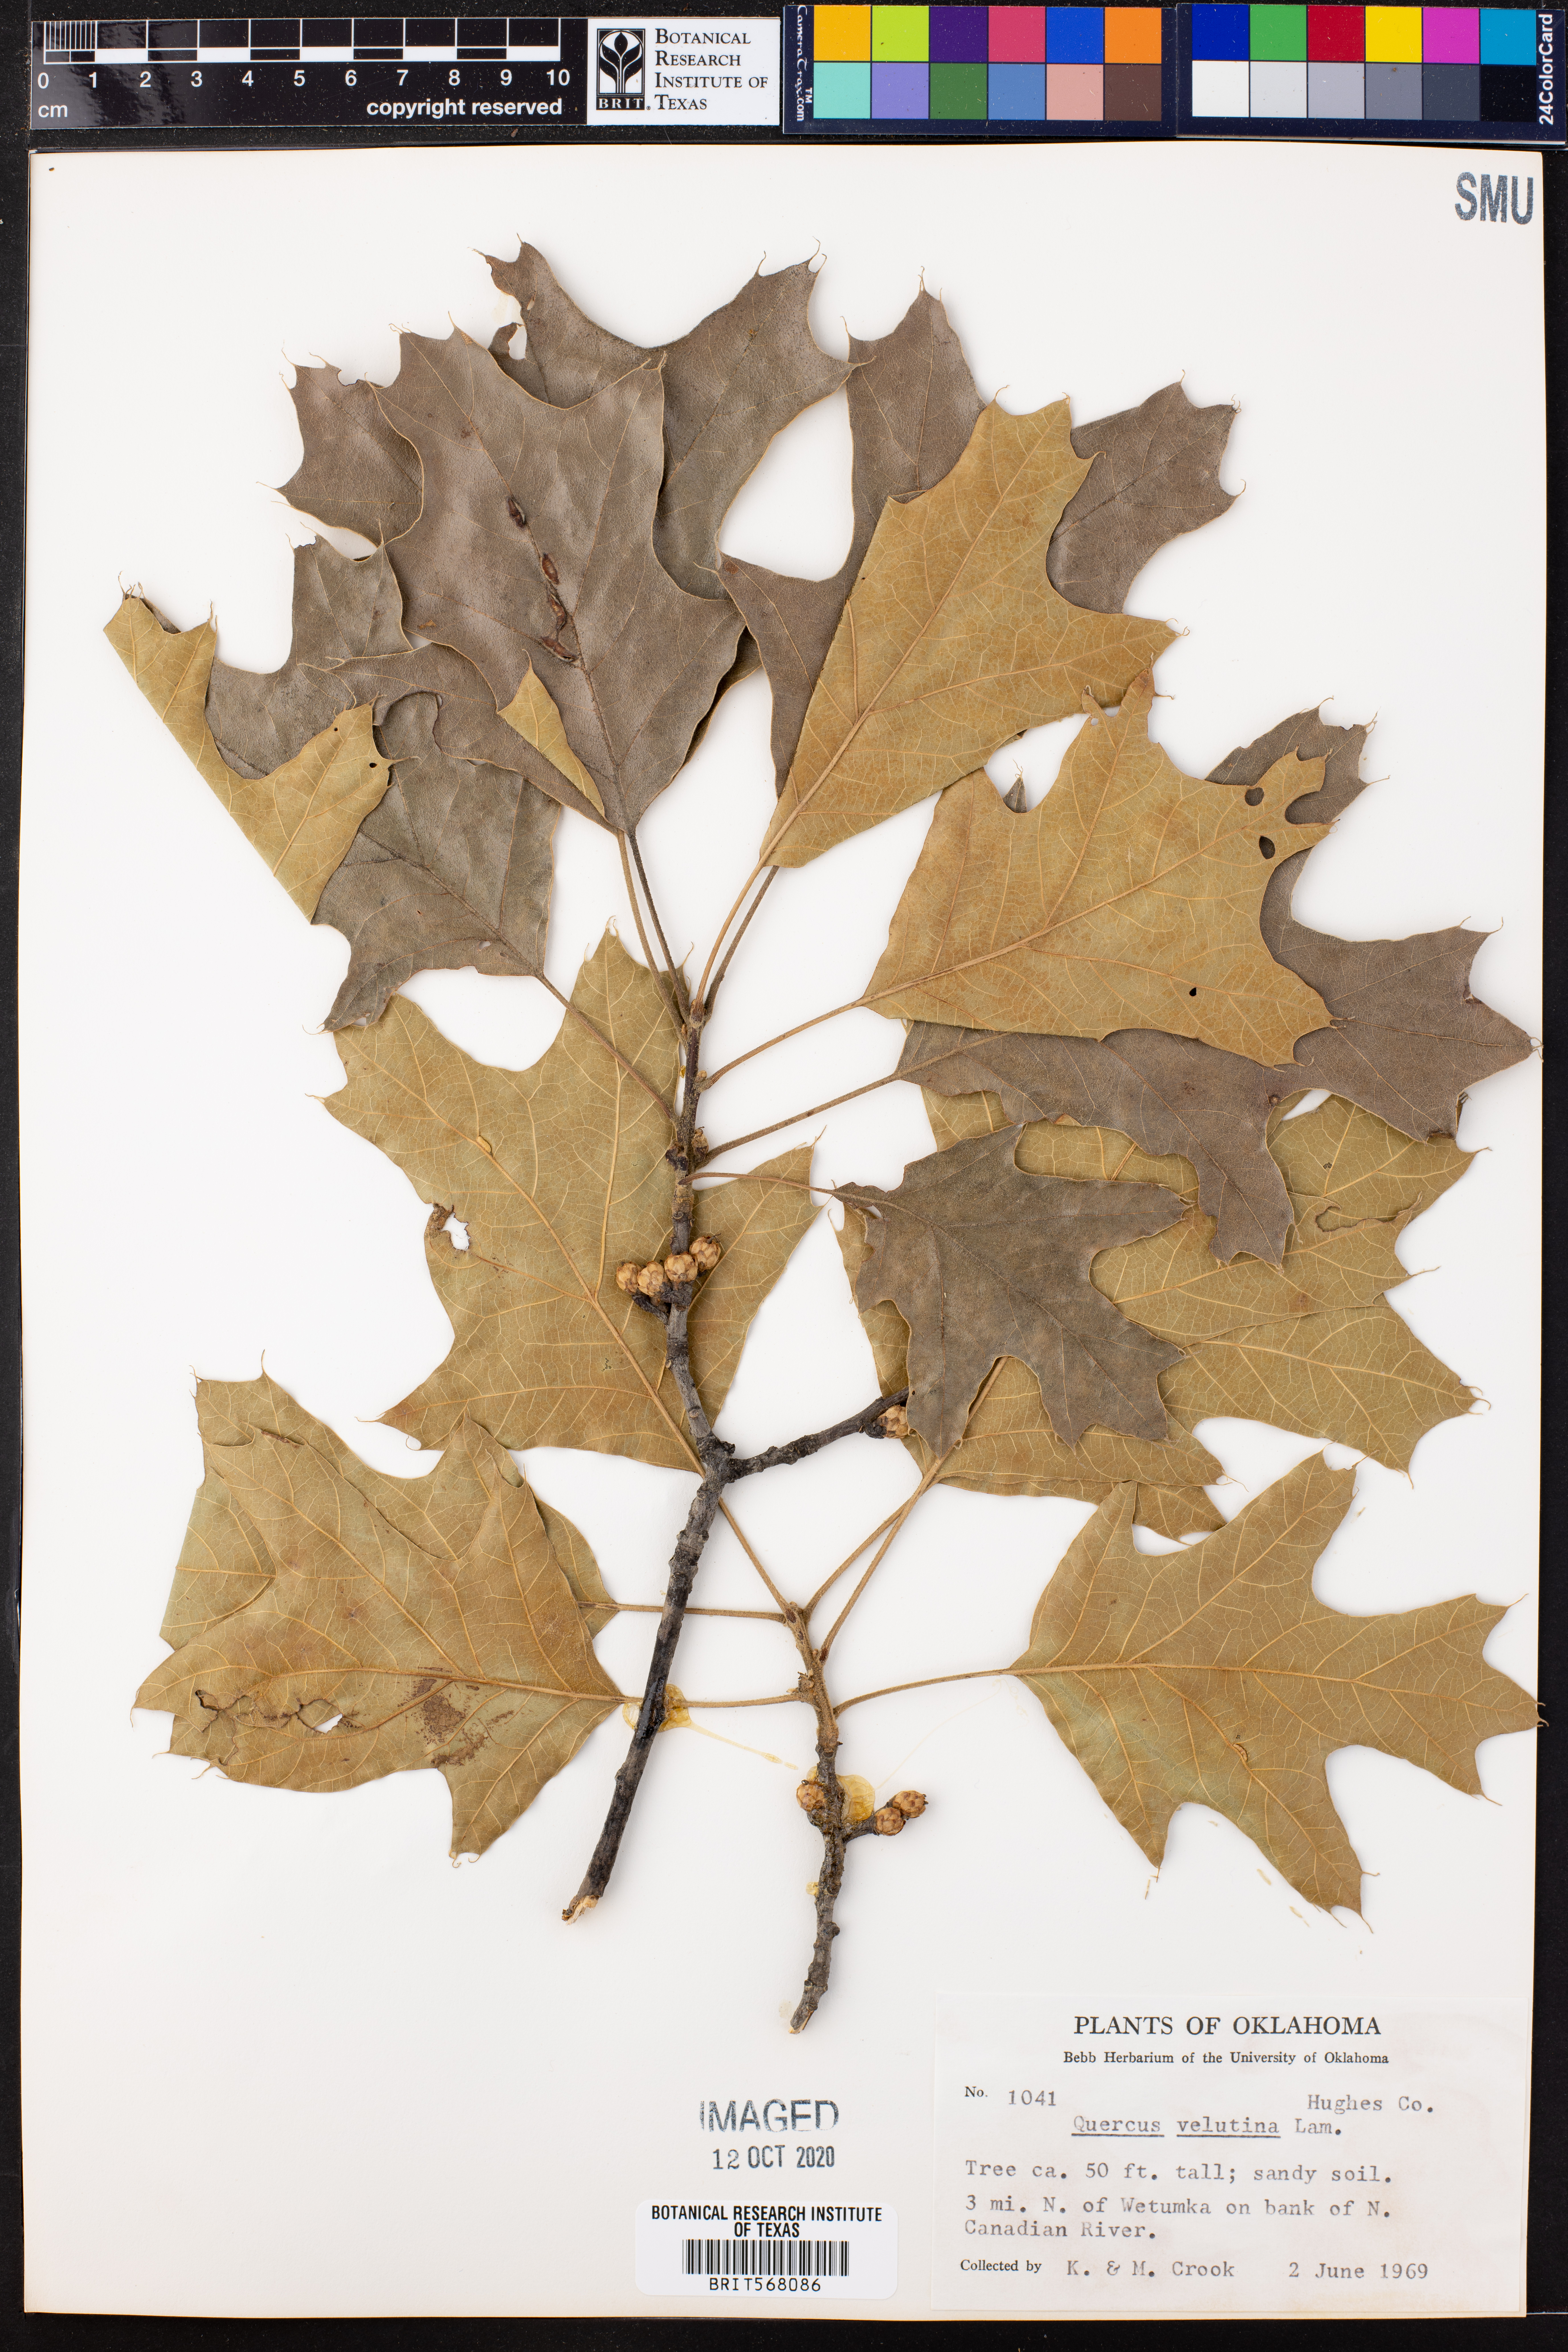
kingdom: Plantae
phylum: Tracheophyta
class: Magnoliopsida
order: Fagales
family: Fagaceae
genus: Quercus
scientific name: Quercus velutina
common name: Black oak
